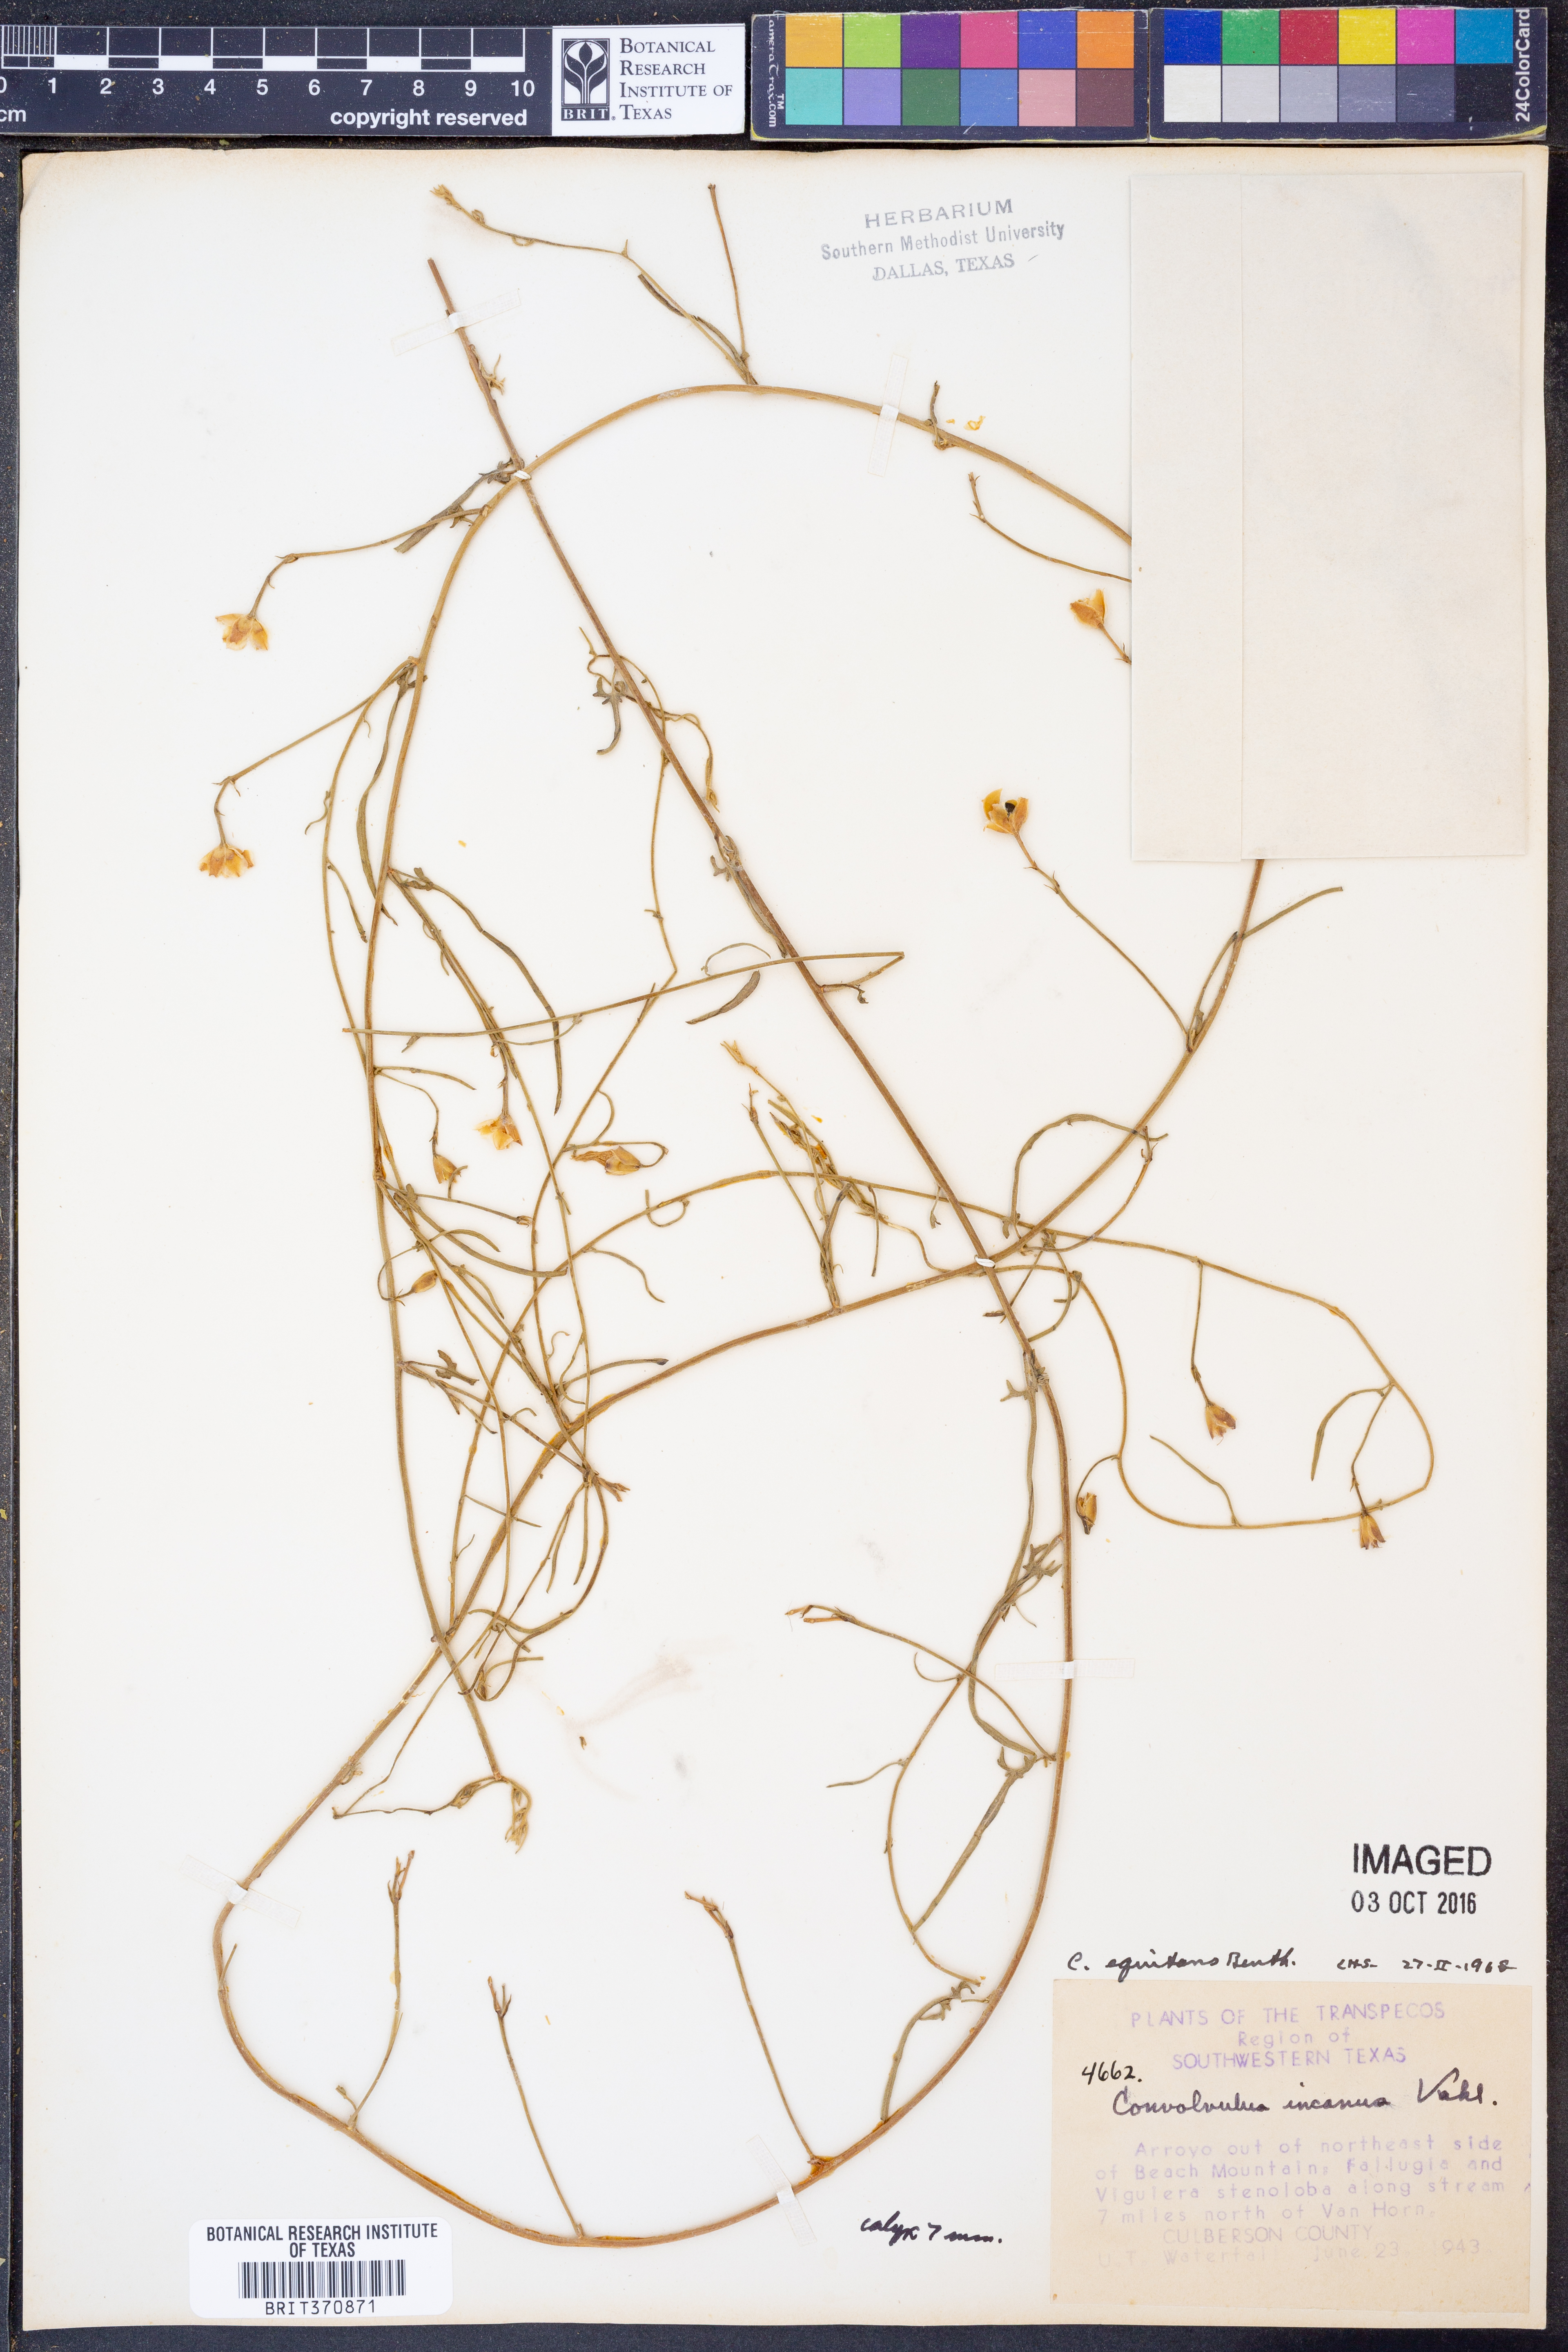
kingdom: Plantae
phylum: Tracheophyta
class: Magnoliopsida
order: Solanales
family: Convolvulaceae
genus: Convolvulus
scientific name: Convolvulus equitans
